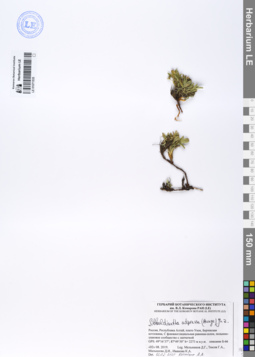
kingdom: Plantae
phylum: Tracheophyta
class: Magnoliopsida
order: Rosales
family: Rosaceae
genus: Sibbaldianthe
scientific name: Sibbaldianthe adpressa
